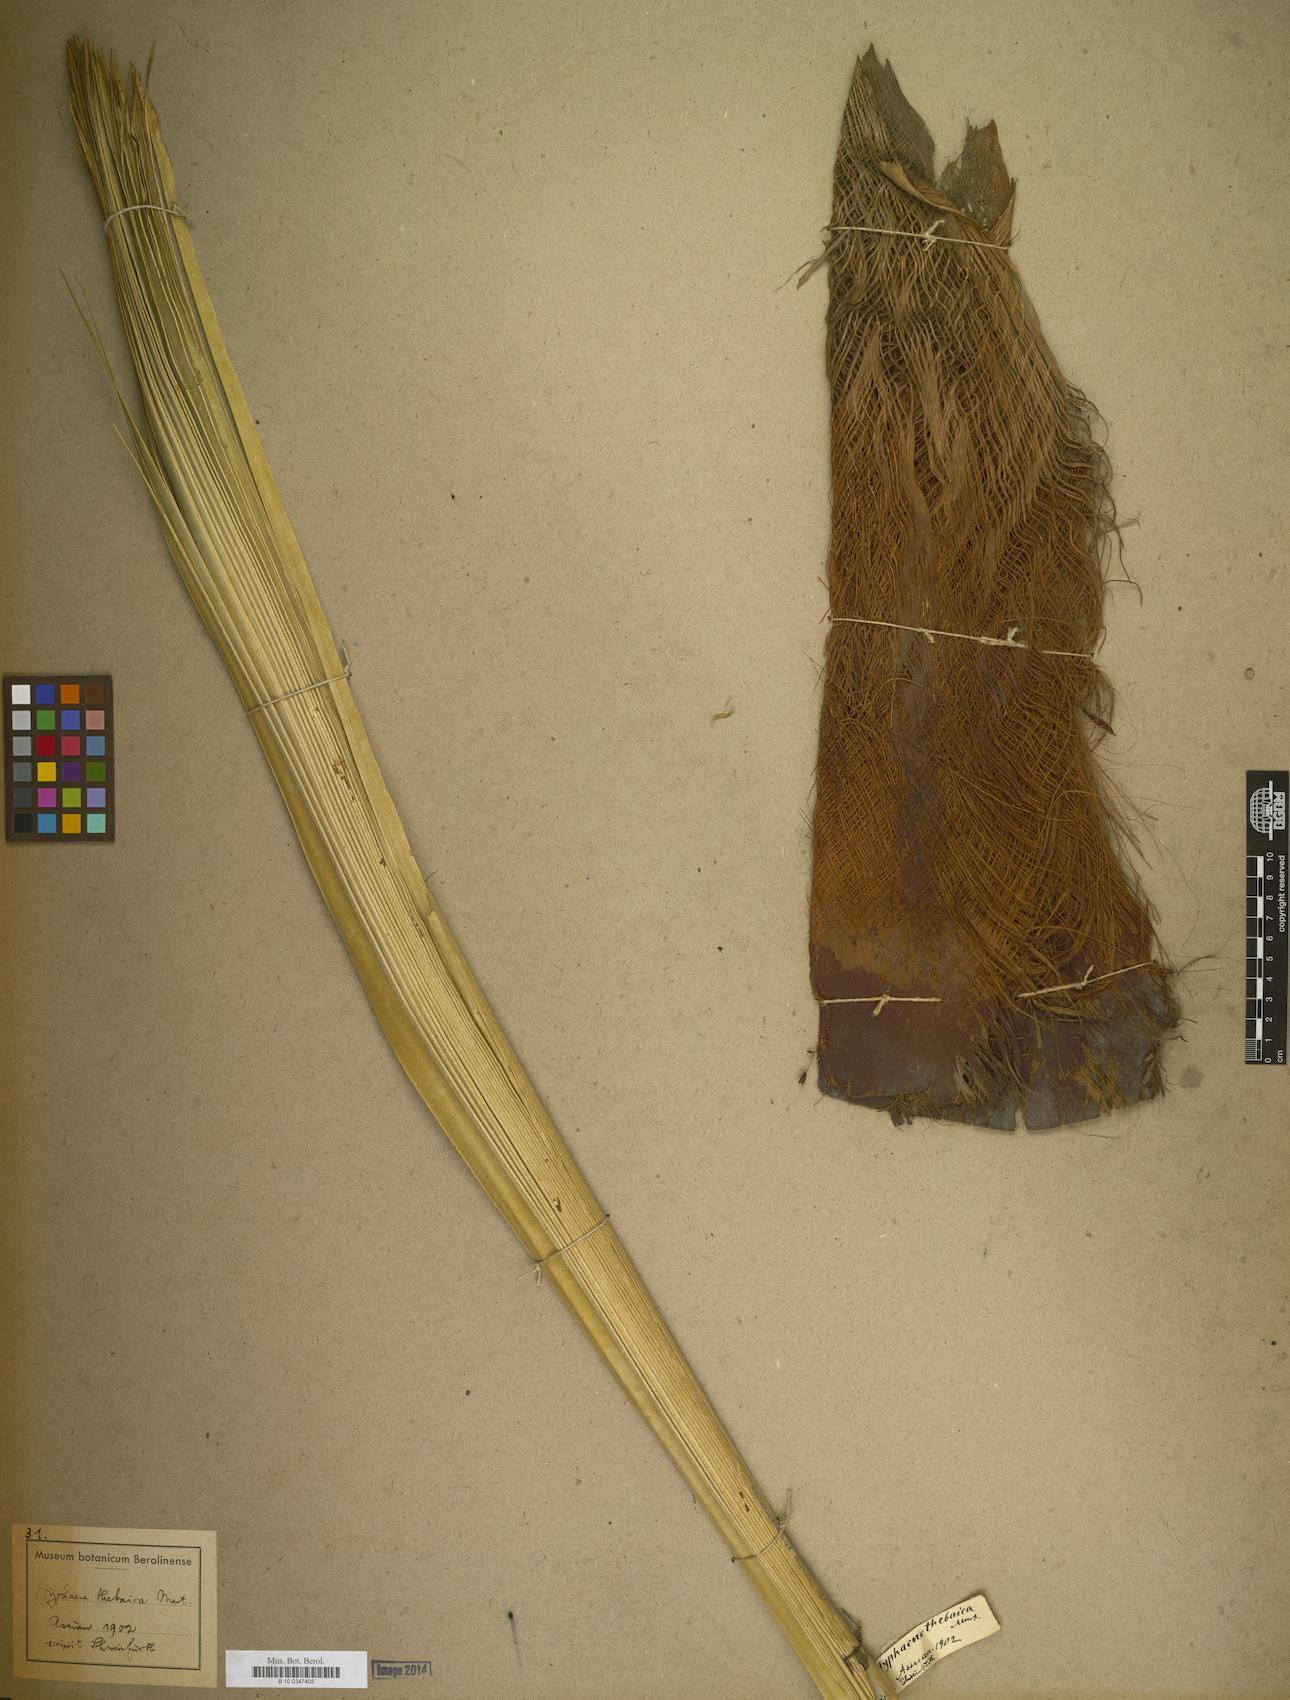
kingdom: Plantae
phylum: Tracheophyta
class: Liliopsida
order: Arecales
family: Arecaceae
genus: Hyphaene
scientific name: Hyphaene
